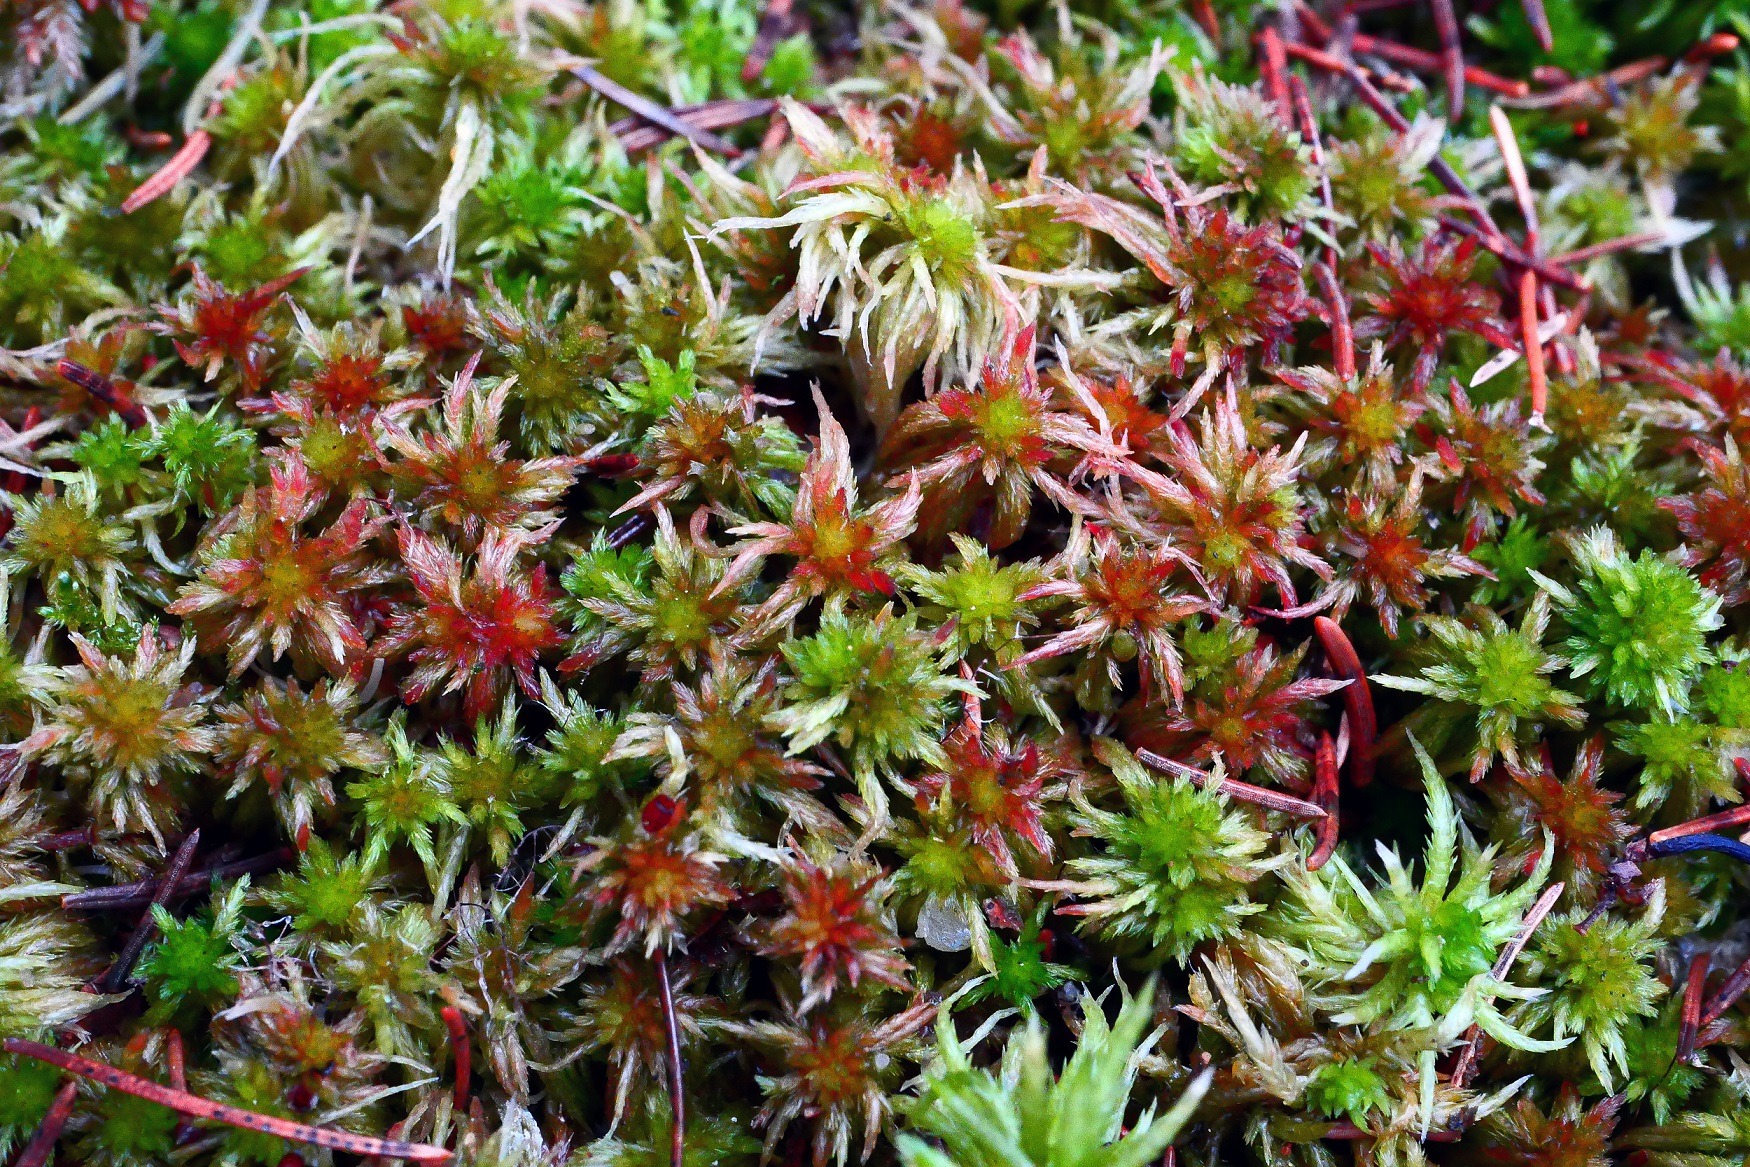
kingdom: Plantae
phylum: Bryophyta
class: Sphagnopsida
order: Sphagnales
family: Sphagnaceae
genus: Sphagnum
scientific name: Sphagnum subnitens
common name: Fedtet tørvemos
